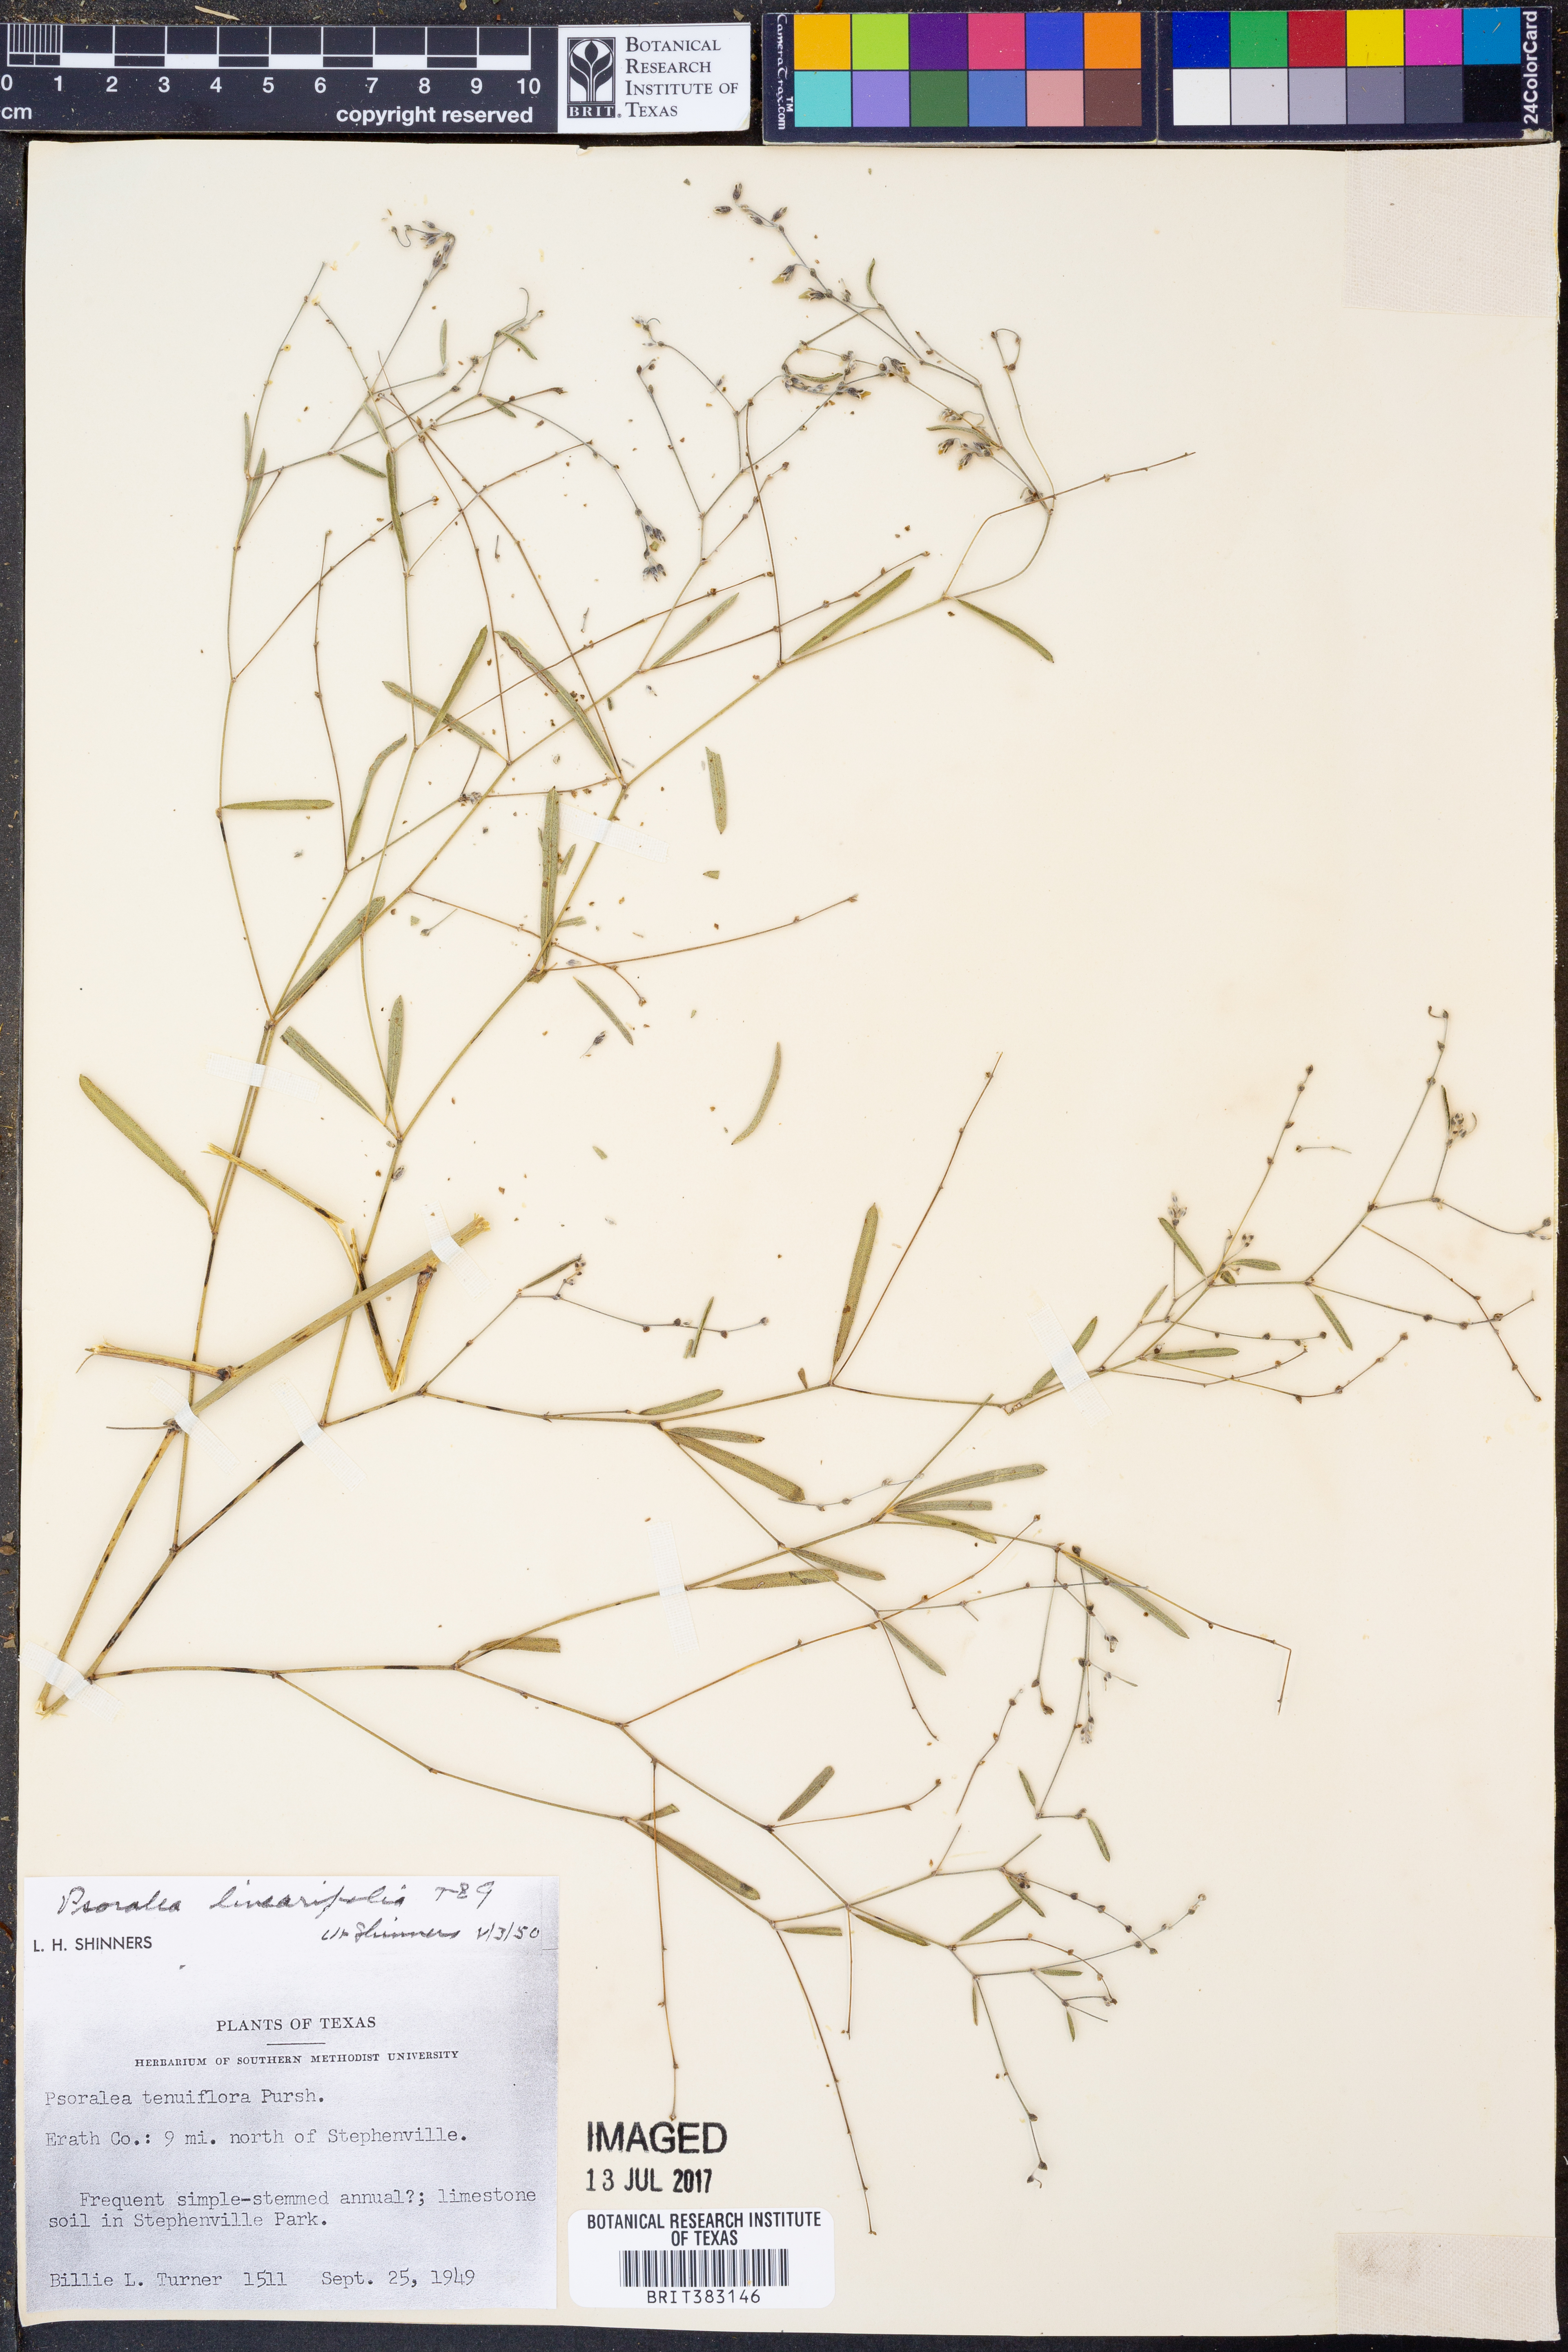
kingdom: Plantae
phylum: Tracheophyta
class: Magnoliopsida
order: Fabales
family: Fabaceae
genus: Pediomelum
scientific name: Pediomelum linearifolium
